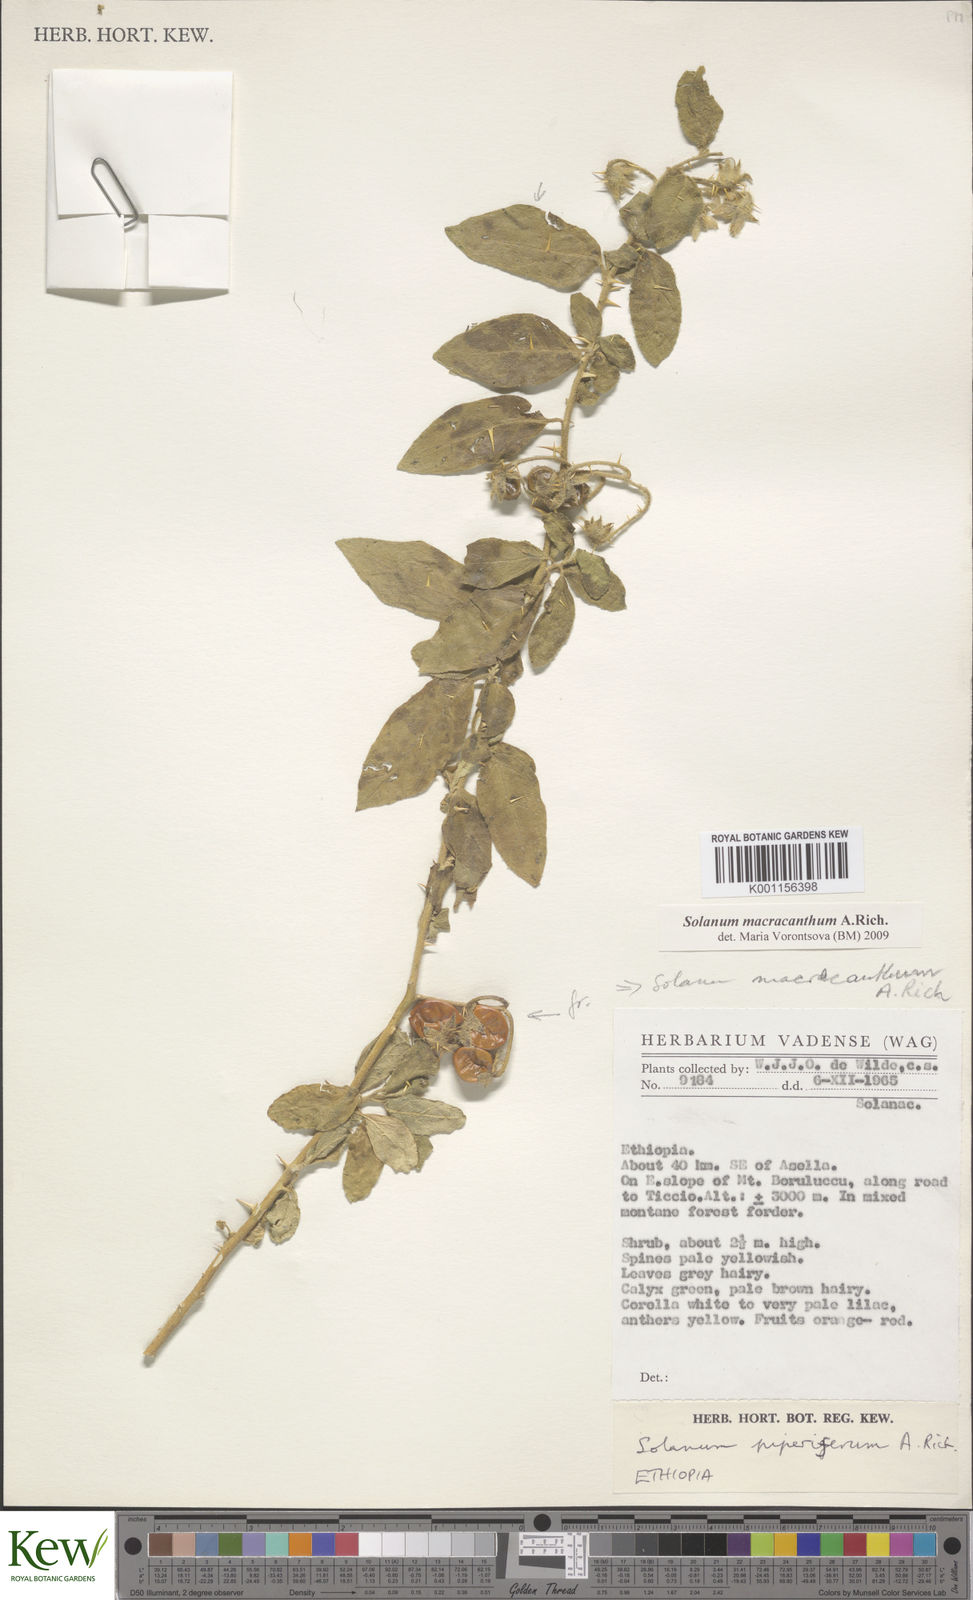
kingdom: Plantae
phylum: Tracheophyta
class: Magnoliopsida
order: Solanales
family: Solanaceae
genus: Solanum
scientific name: Solanum macracanthum
